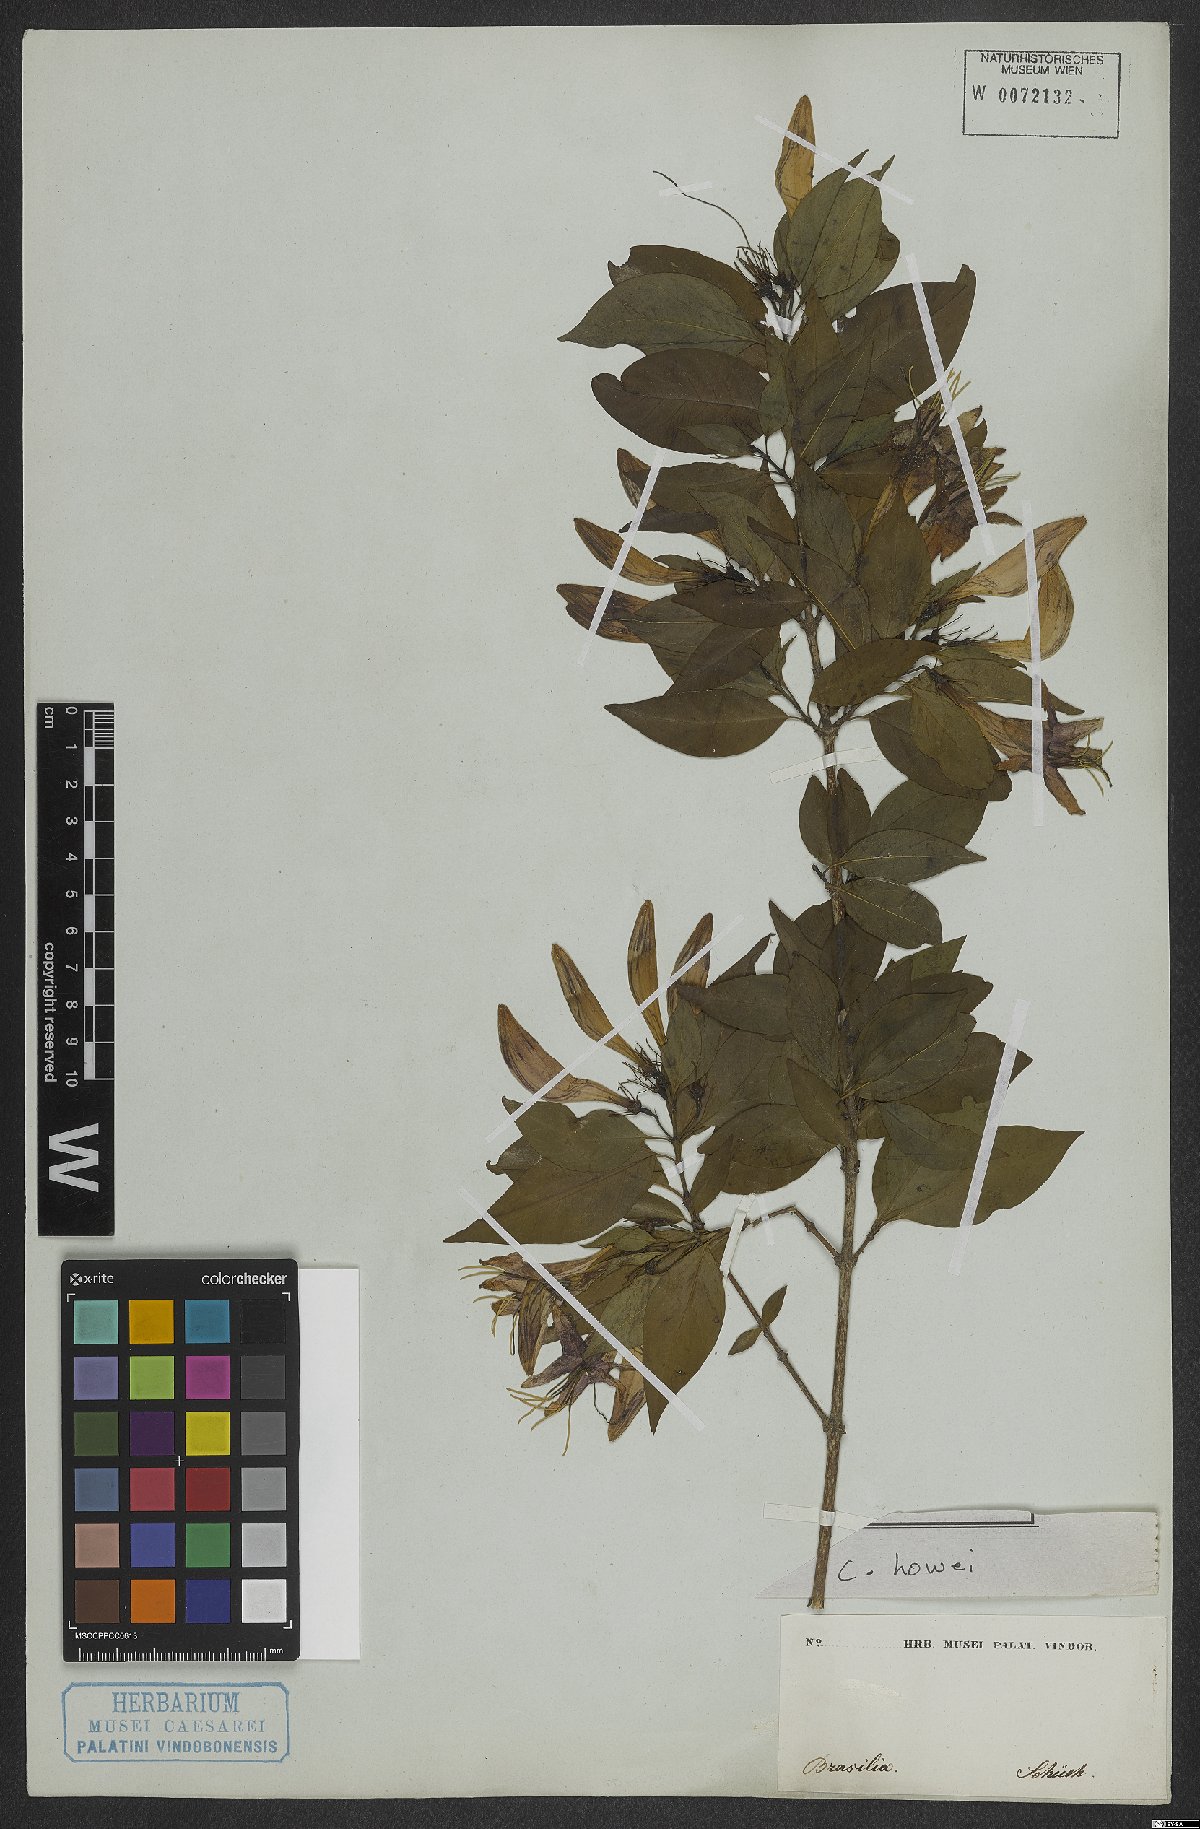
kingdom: Plantae
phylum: Tracheophyta
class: Magnoliopsida
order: Gentianales
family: Rubiaceae
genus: Coutarea
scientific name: Coutarea
